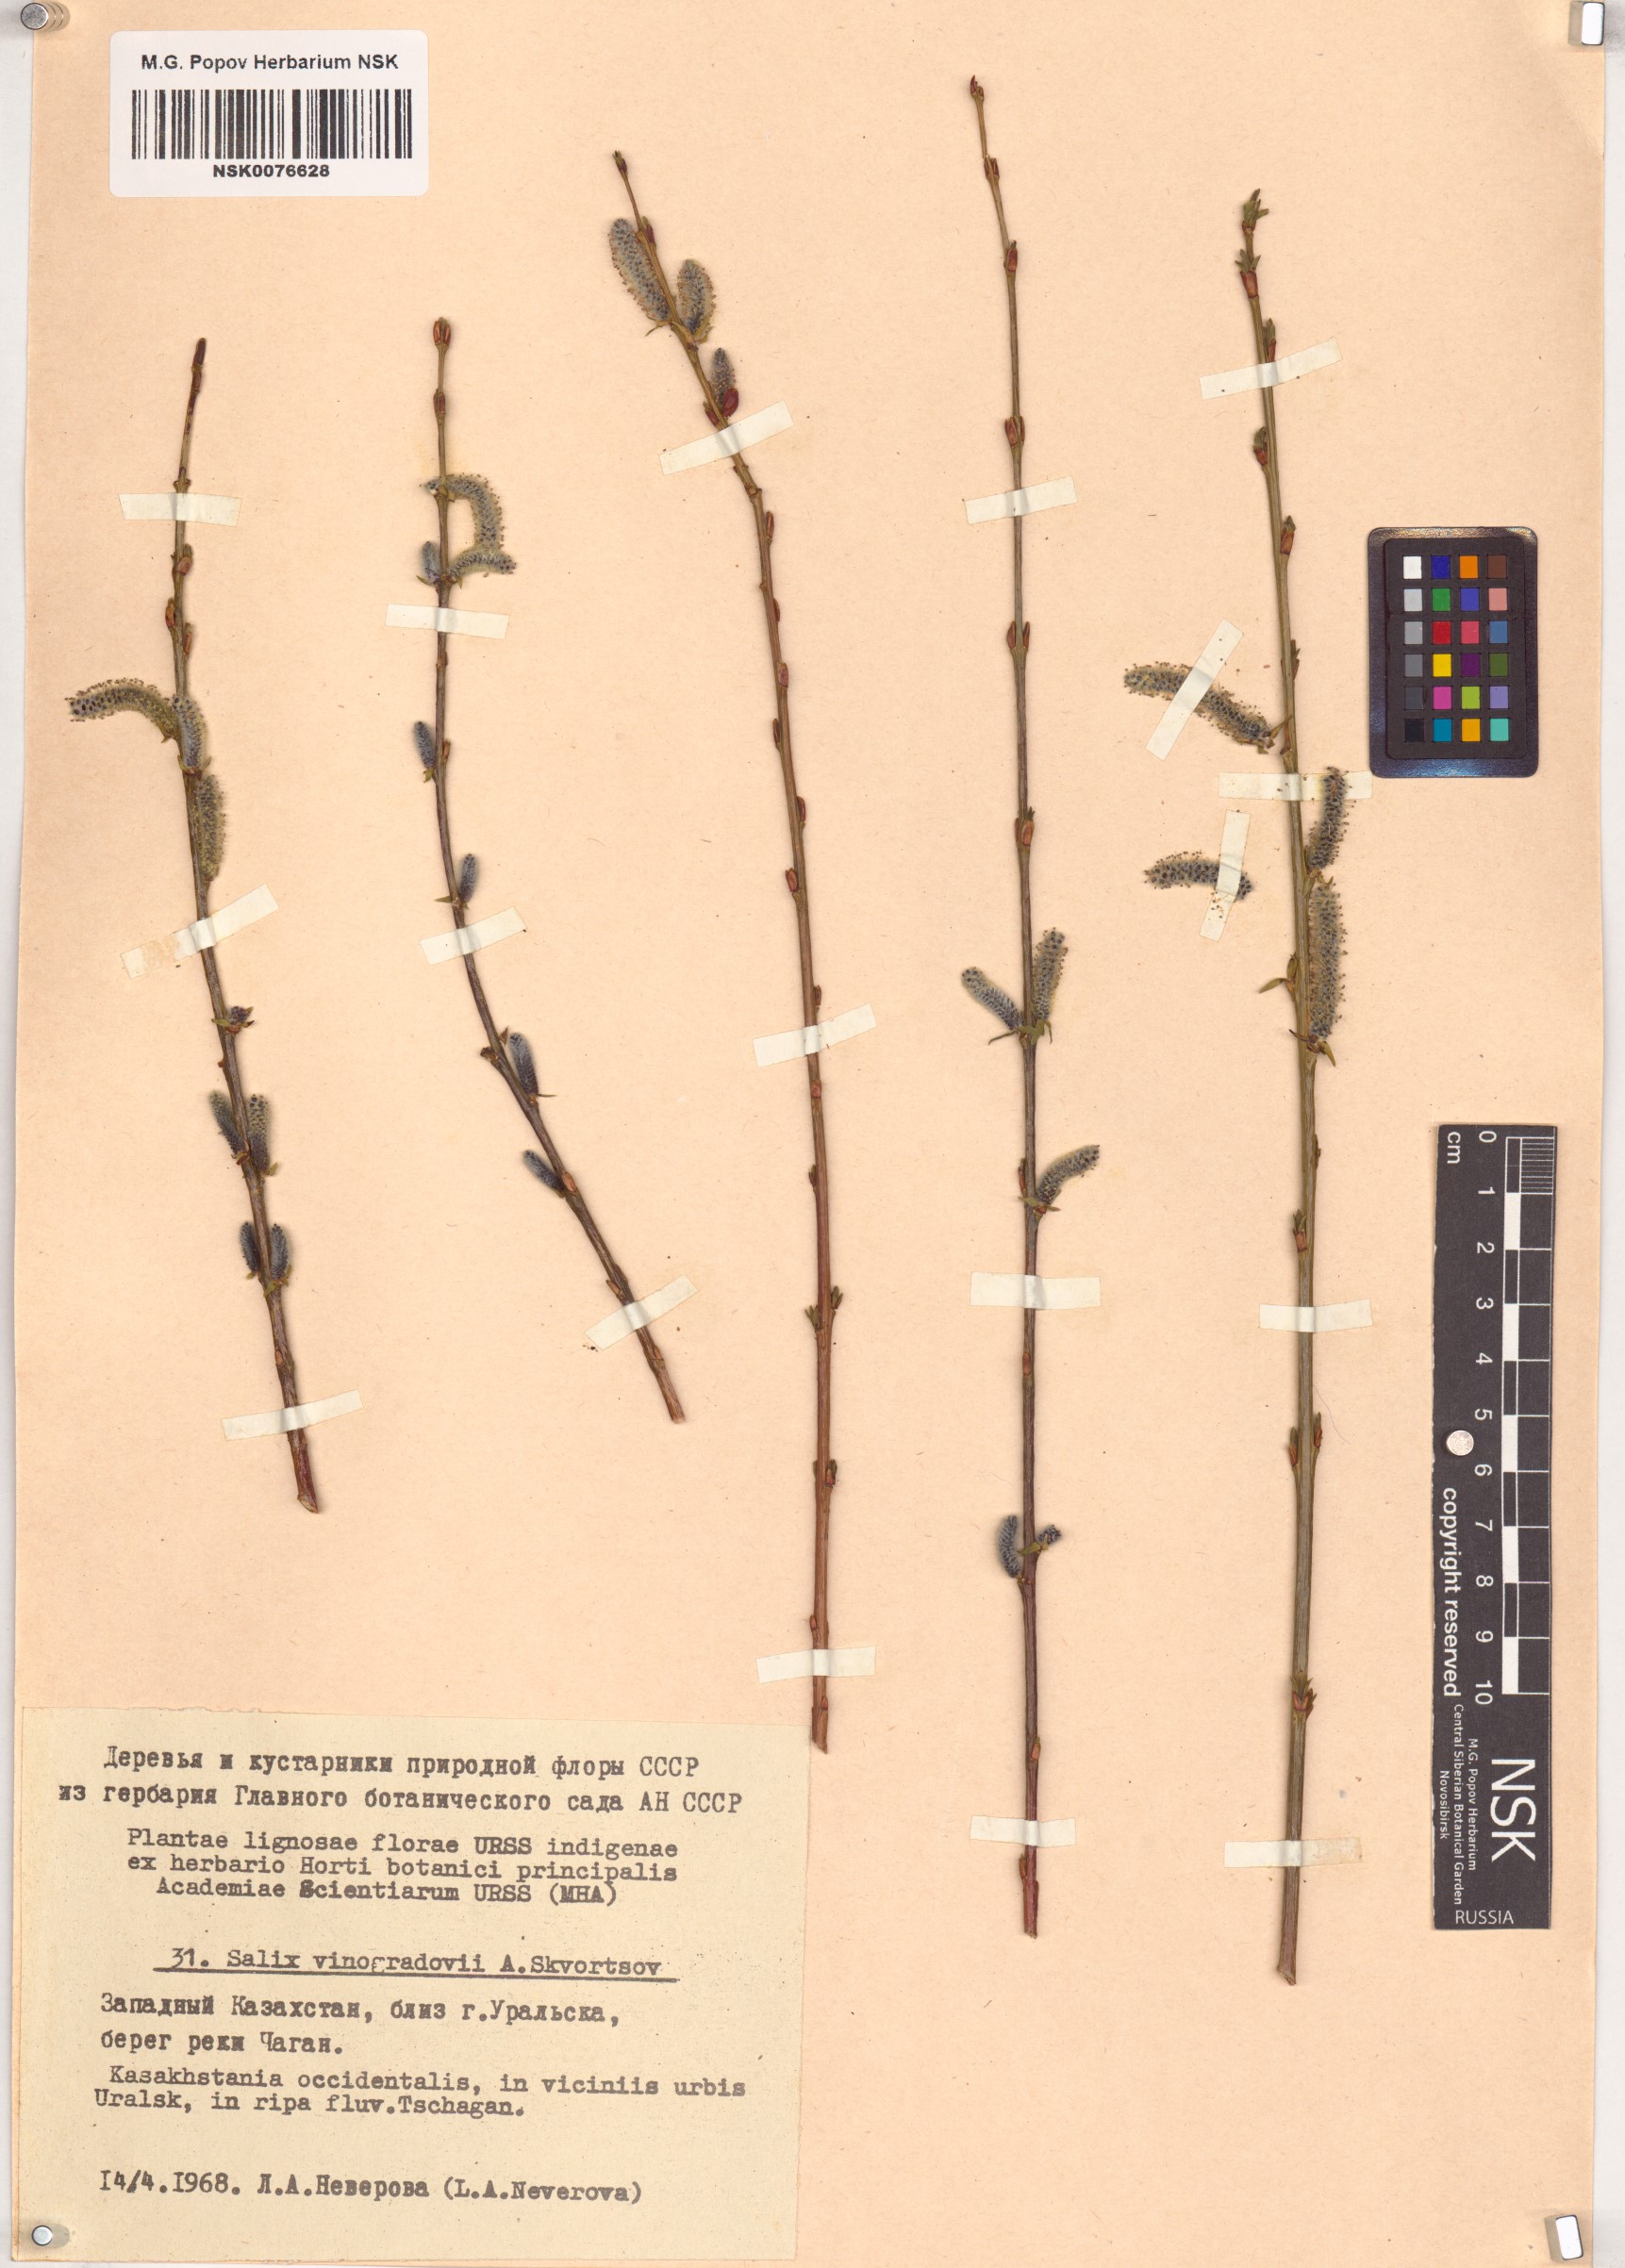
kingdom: Plantae
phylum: Tracheophyta
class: Magnoliopsida
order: Malpighiales
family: Salicaceae
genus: Salix
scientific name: Salix vinogradovii
